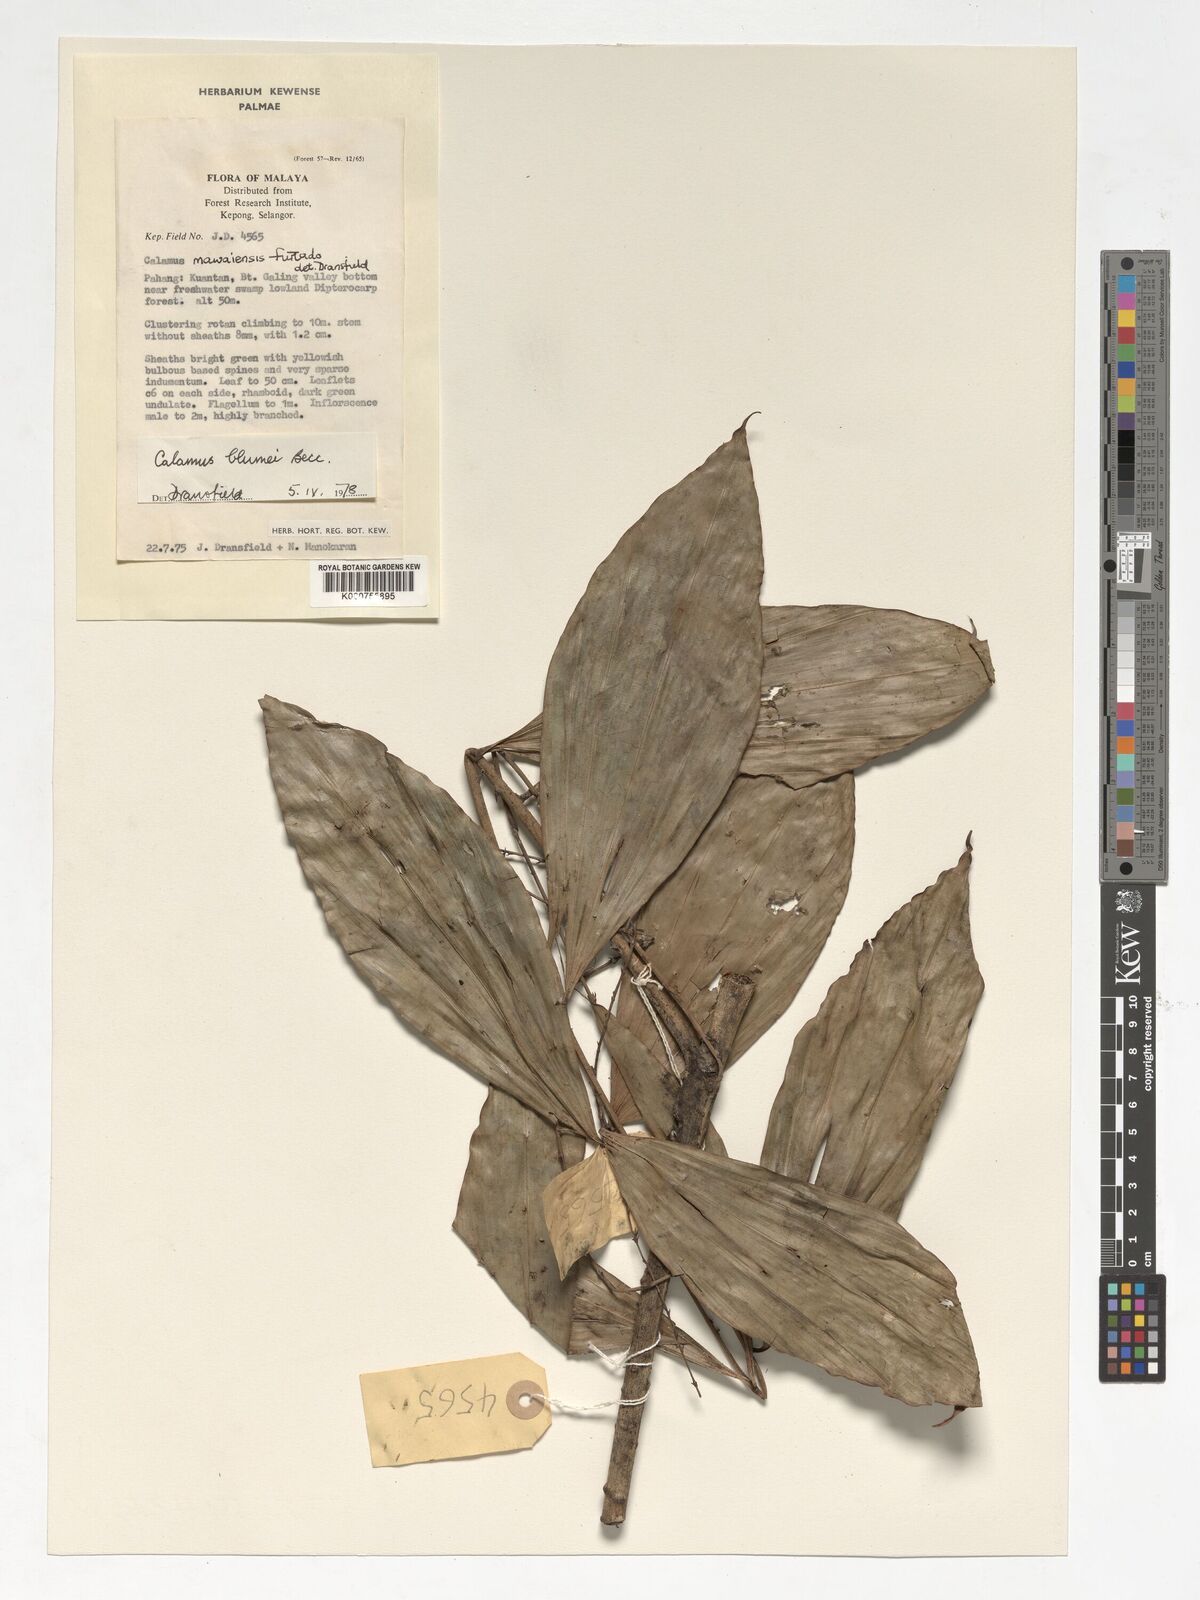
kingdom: Plantae
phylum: Tracheophyta
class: Liliopsida
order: Arecales
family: Arecaceae
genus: Calamus
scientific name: Calamus rhomboideus
